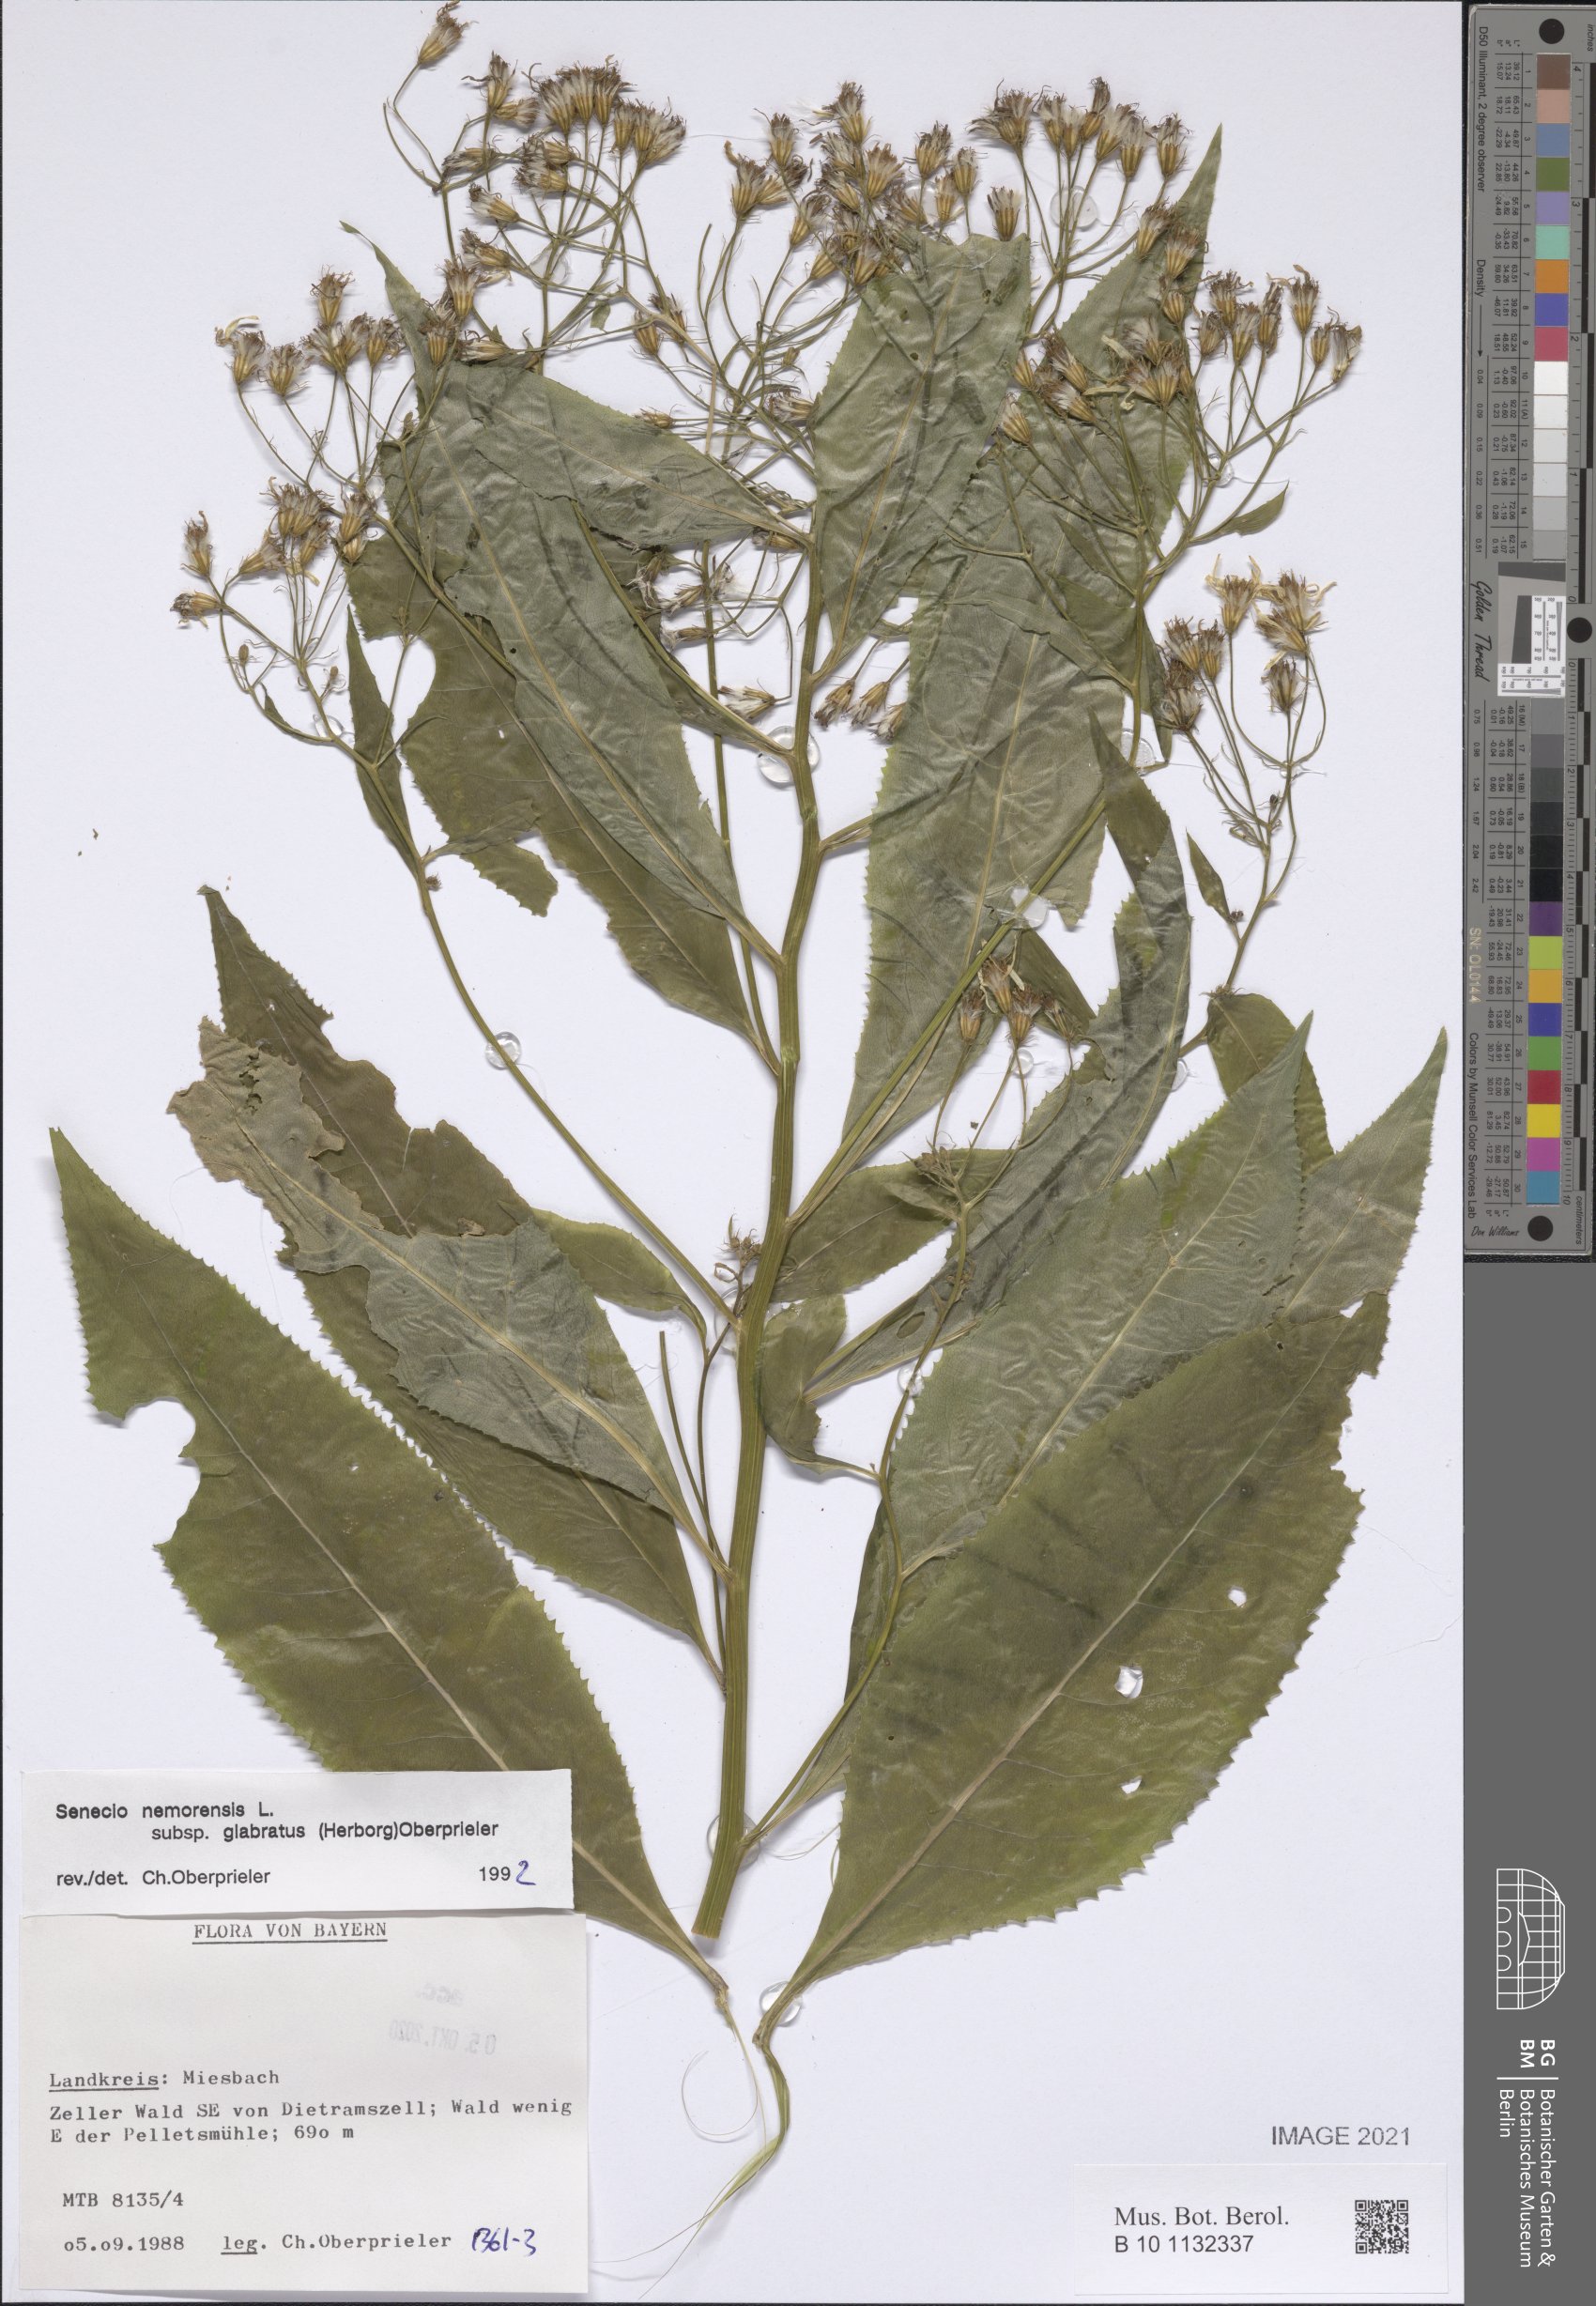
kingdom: Plantae
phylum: Tracheophyta
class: Magnoliopsida
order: Asterales
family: Asteraceae
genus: Senecio
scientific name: Senecio germanicus
